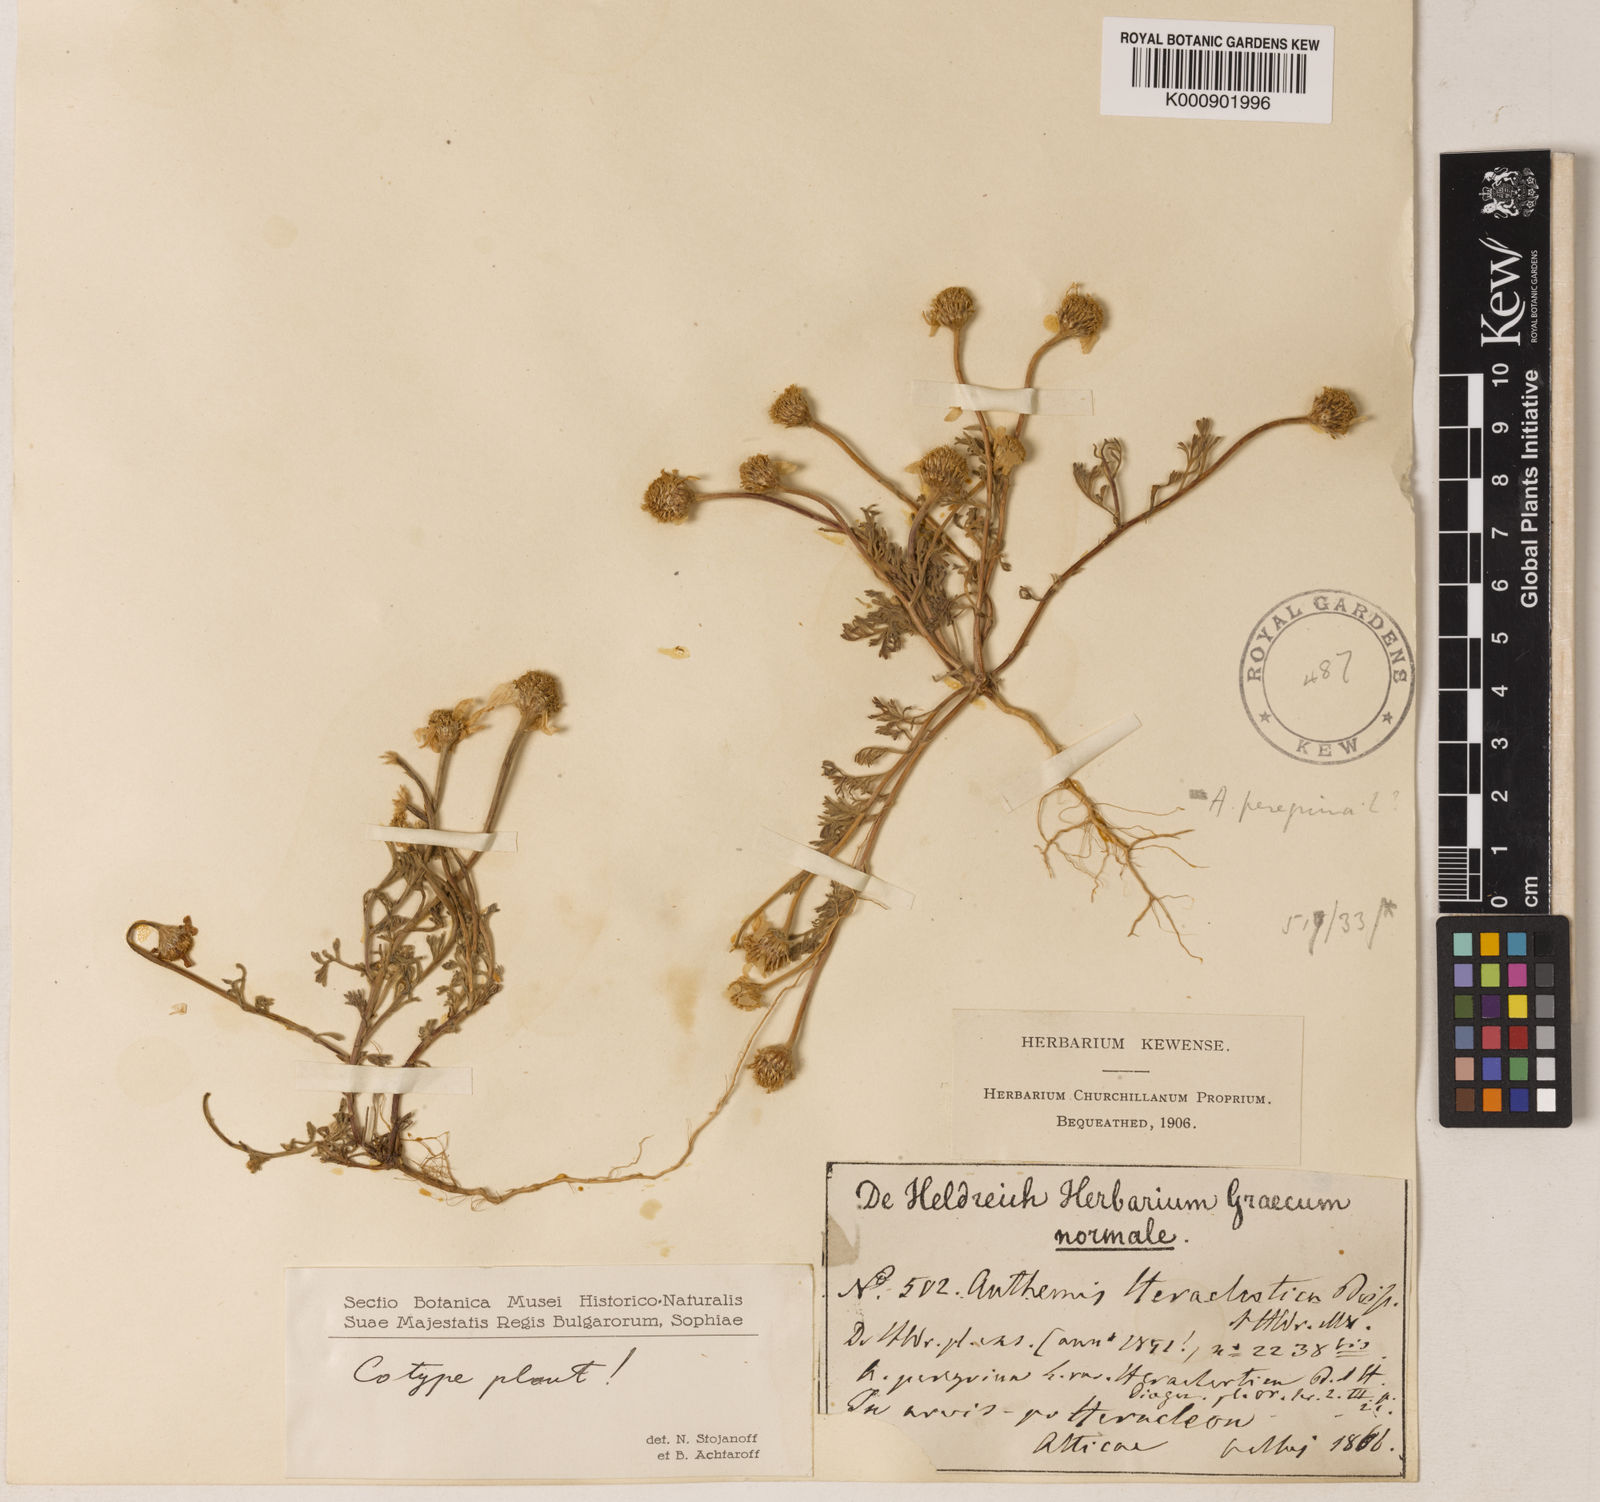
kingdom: Plantae
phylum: Tracheophyta
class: Magnoliopsida
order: Asterales
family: Asteraceae
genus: Anthemis
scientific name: Anthemis tomentosa
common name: Woolly chamomile
